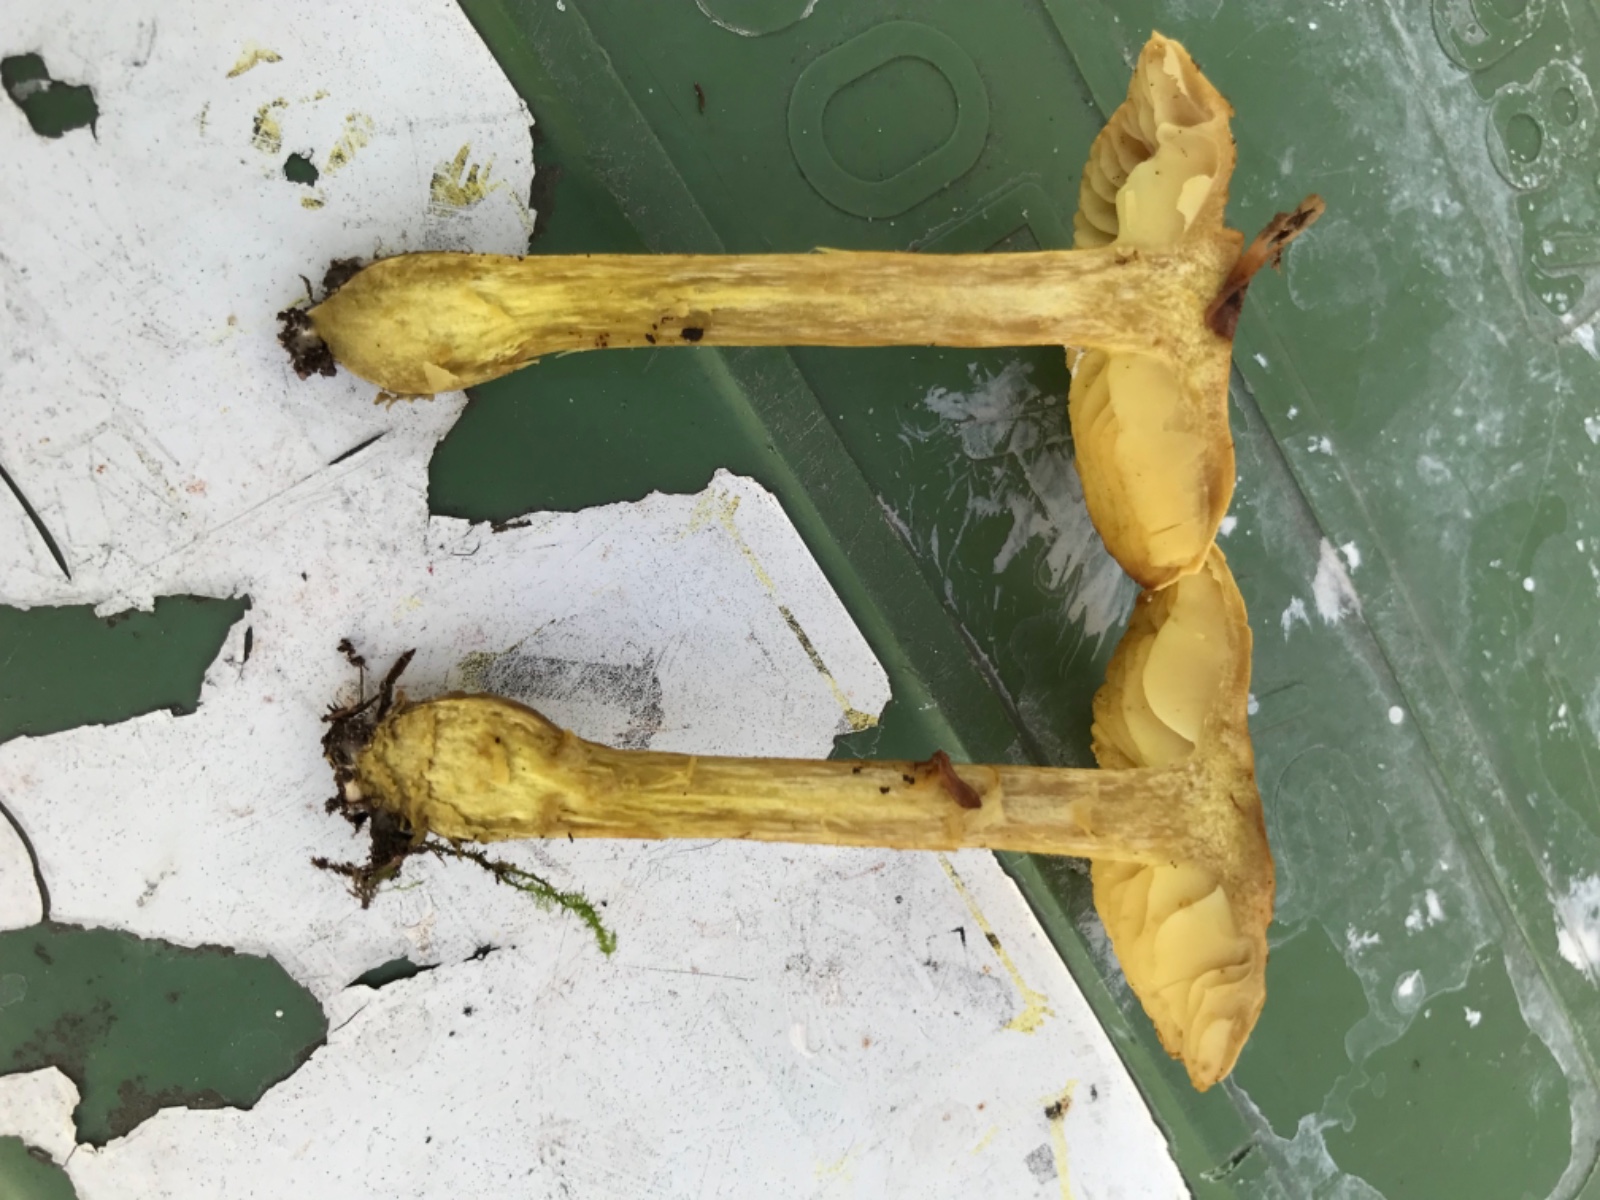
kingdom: Fungi
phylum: Basidiomycota
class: Agaricomycetes
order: Agaricales
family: Tricholomataceae
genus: Tricholoma
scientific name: Tricholoma sulphureum
